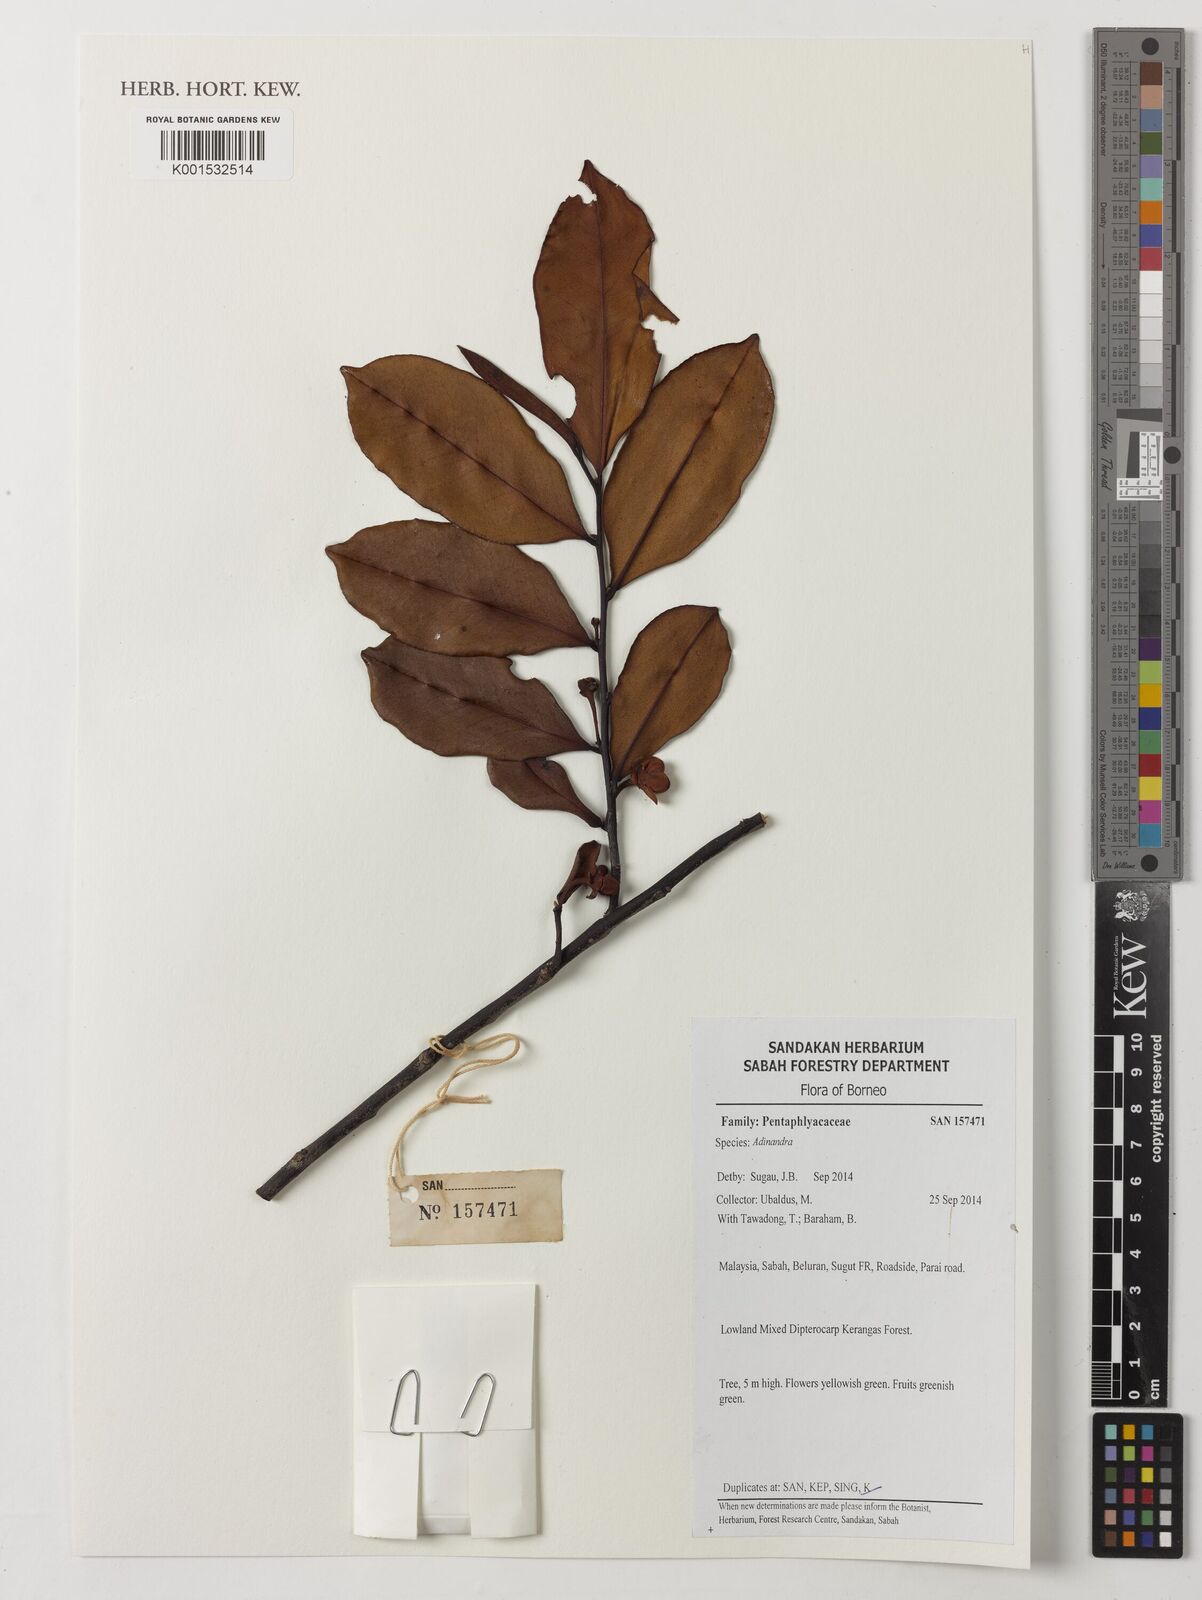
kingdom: Plantae
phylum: Tracheophyta
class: Magnoliopsida
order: Ericales
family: Pentaphylacaceae
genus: Adinandra
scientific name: Adinandra
